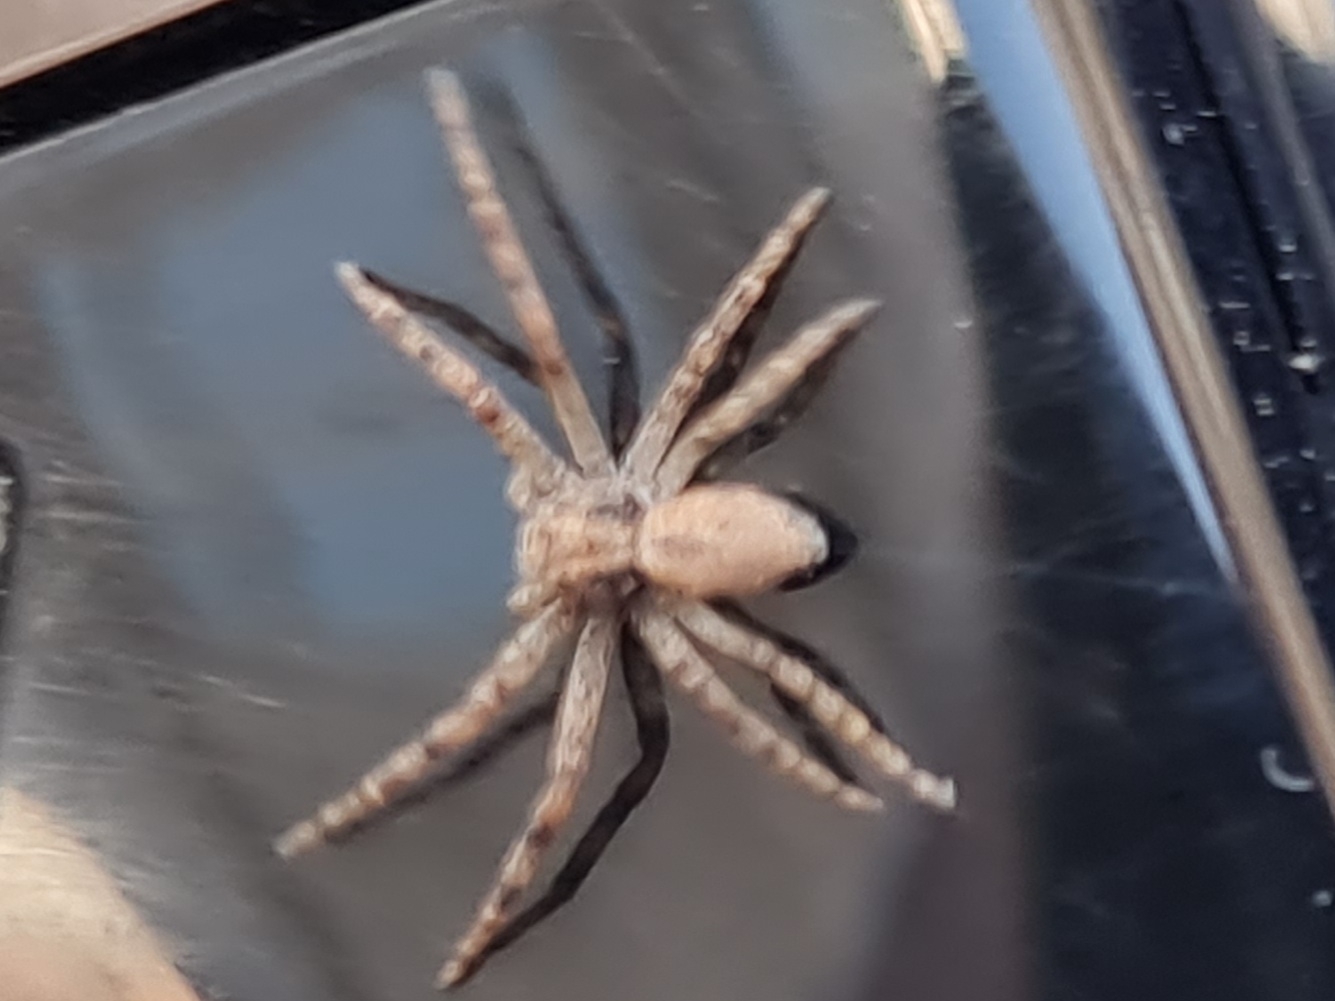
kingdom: Animalia
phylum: Arthropoda
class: Arachnida
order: Araneae
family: Philodromidae
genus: Philodromus
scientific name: Philodromus
